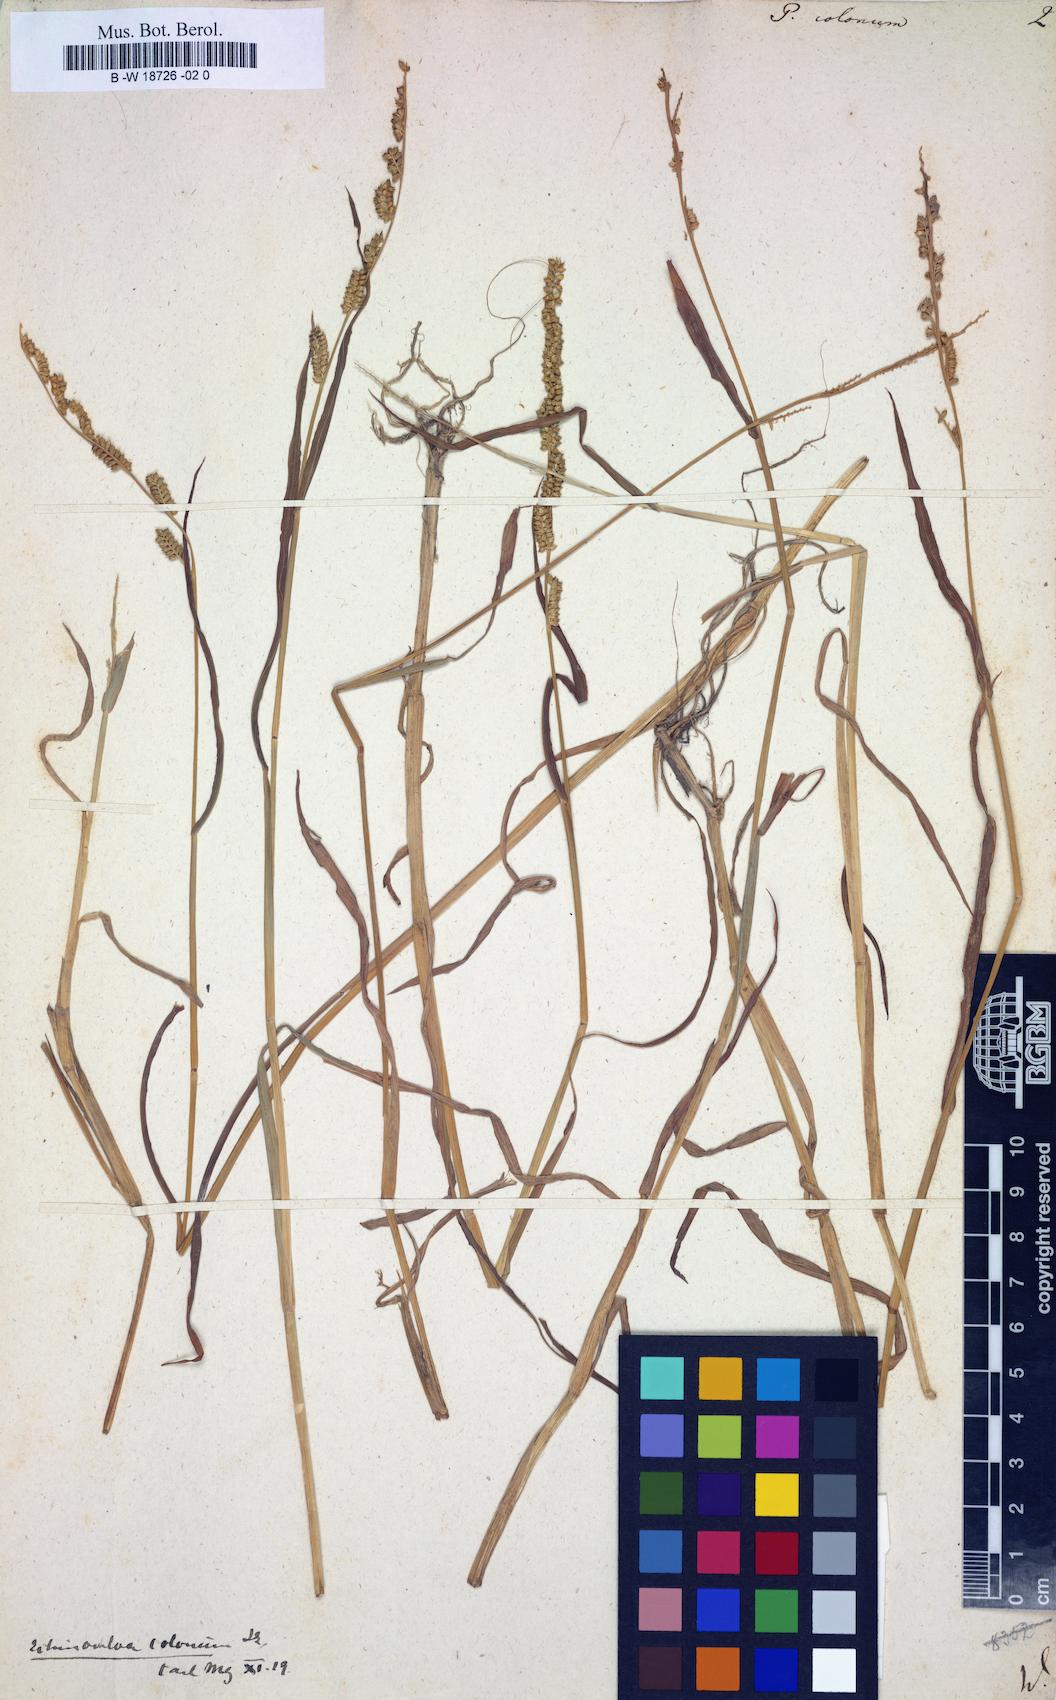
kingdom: Plantae
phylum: Tracheophyta
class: Liliopsida
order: Poales
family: Poaceae
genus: Echinochloa
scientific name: Echinochloa colonum
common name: Jungle rice
